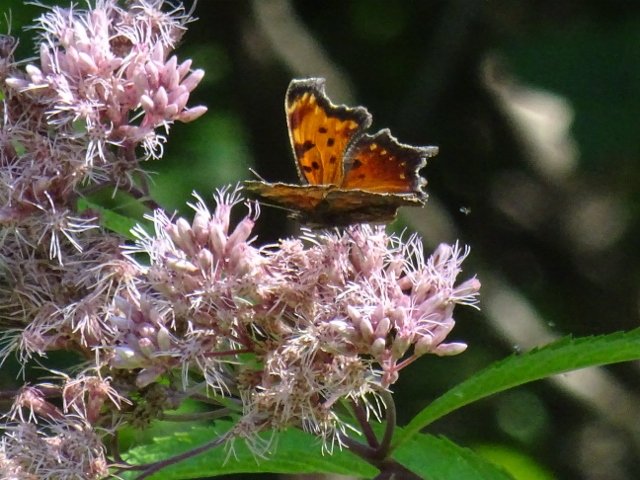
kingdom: Animalia
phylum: Arthropoda
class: Insecta
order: Lepidoptera
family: Nymphalidae
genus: Polygonia
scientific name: Polygonia progne
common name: Gray Comma
